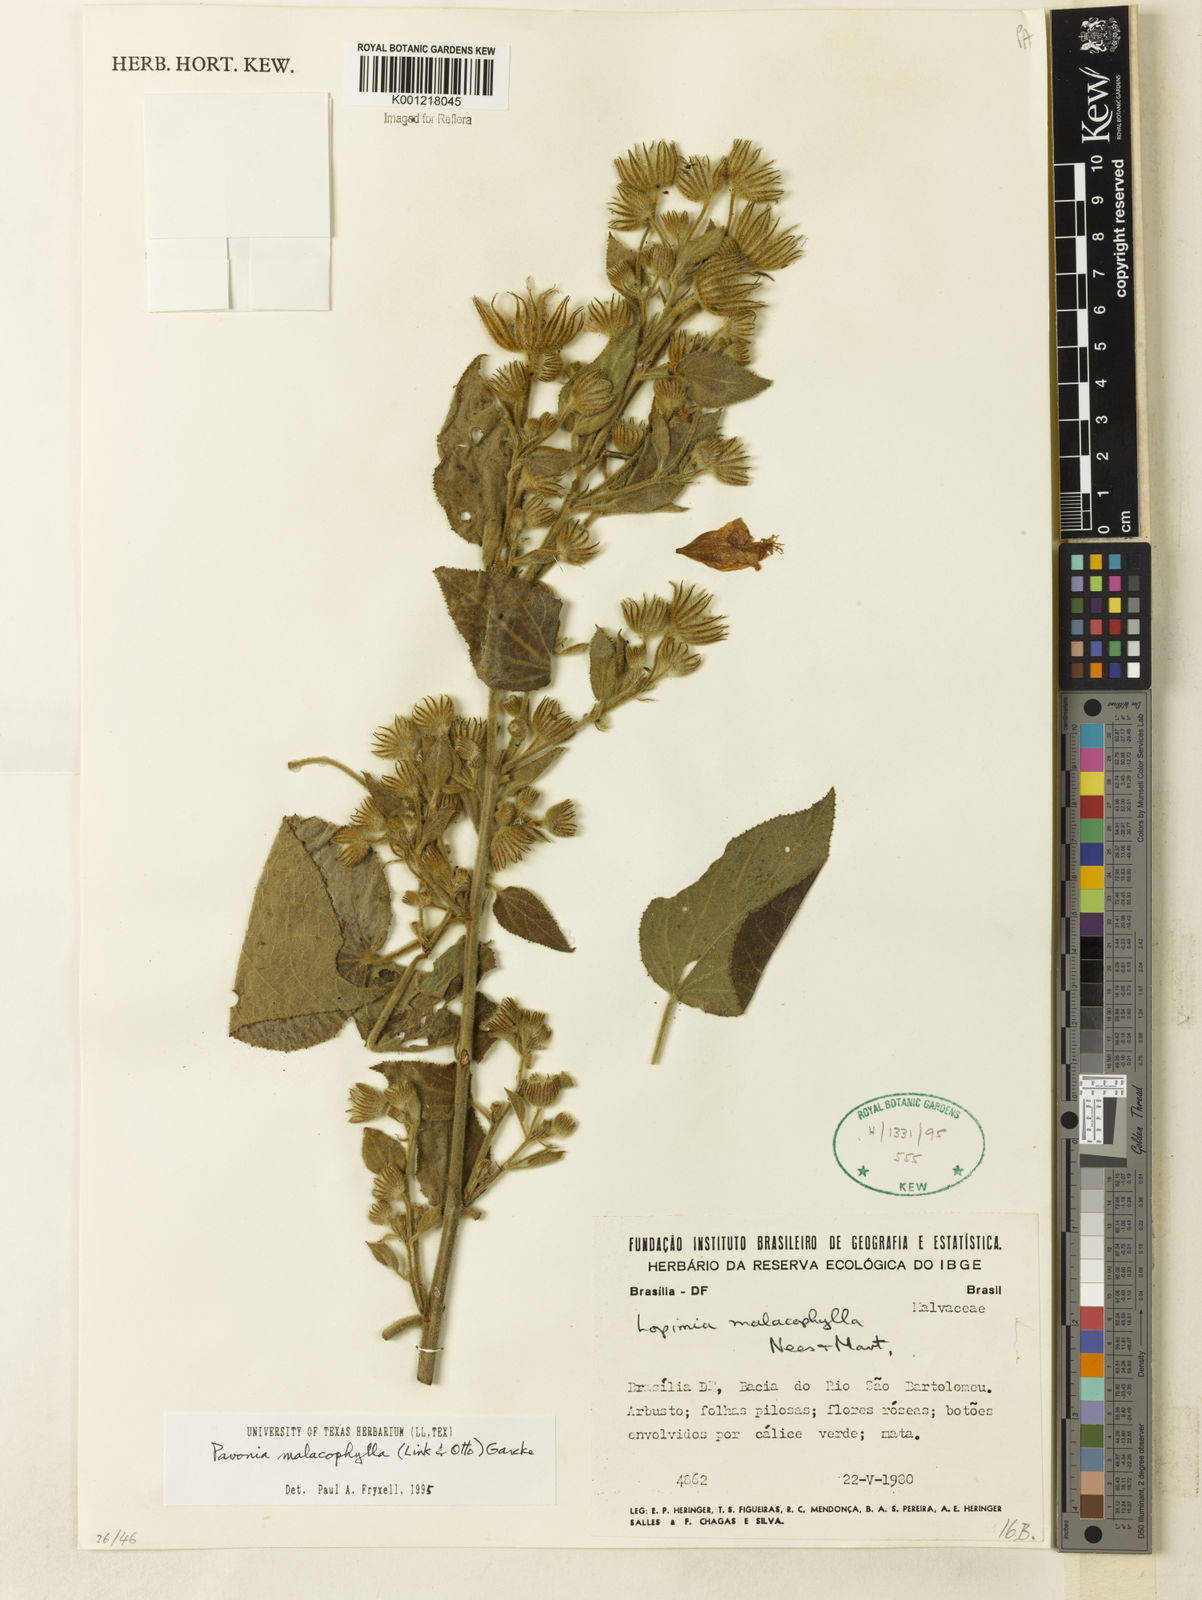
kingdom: Plantae
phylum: Tracheophyta
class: Magnoliopsida
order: Malvales
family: Malvaceae
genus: Pavonia
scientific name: Pavonia malacophylla
